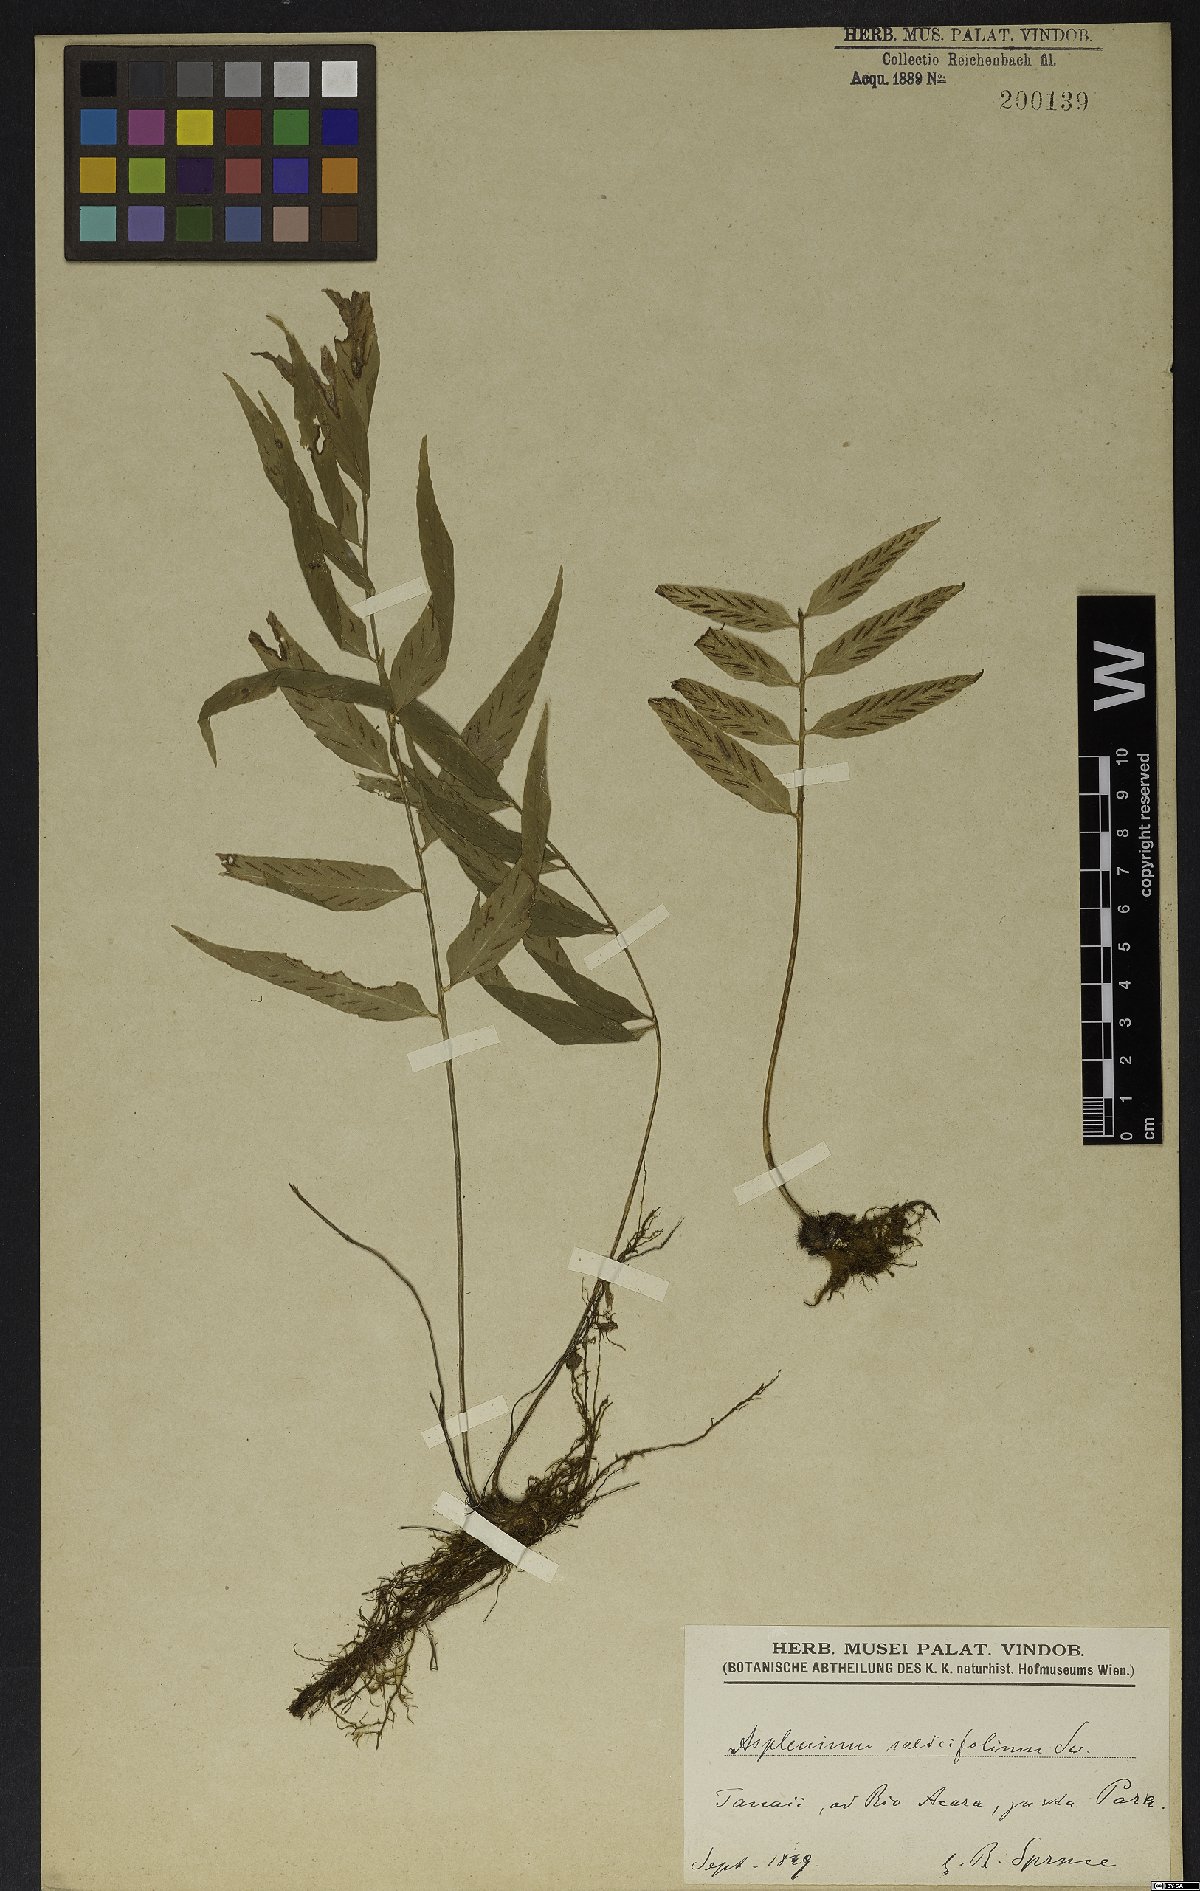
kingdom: Plantae
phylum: Tracheophyta
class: Polypodiopsida
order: Polypodiales
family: Aspleniaceae
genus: Asplenium
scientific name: Asplenium salicifolium
